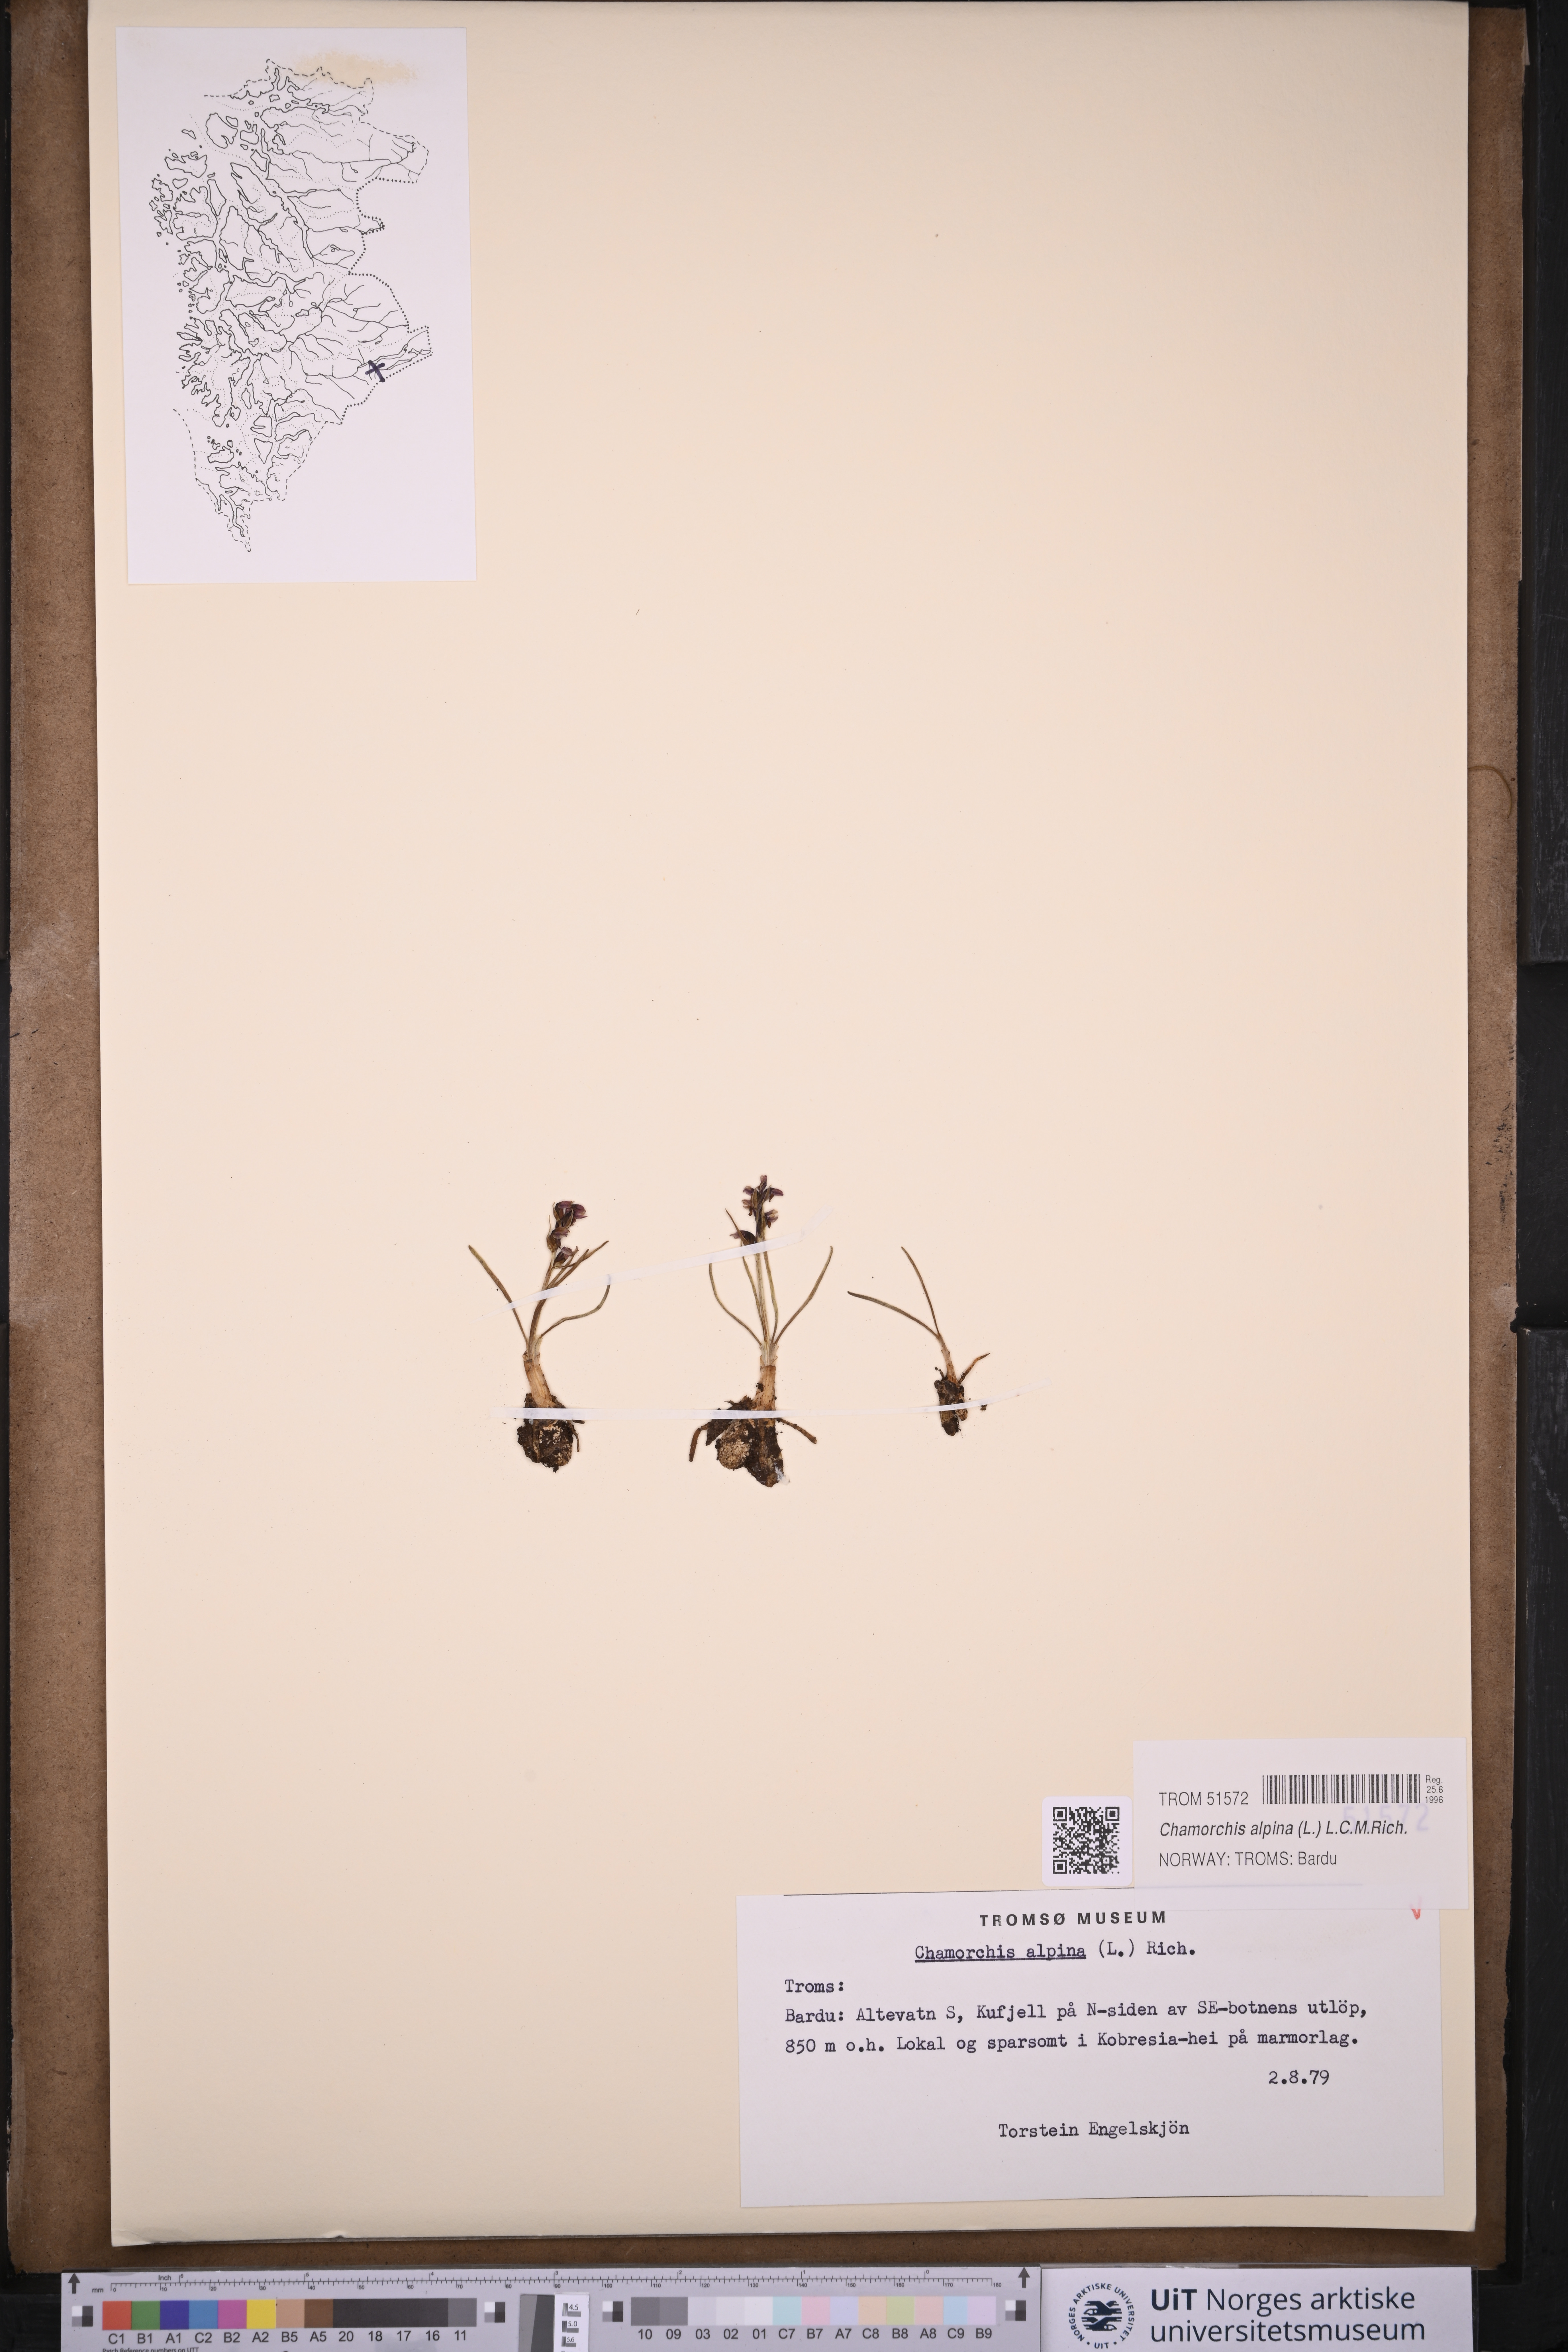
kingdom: Plantae
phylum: Tracheophyta
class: Liliopsida
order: Asparagales
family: Orchidaceae
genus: Chamorchis
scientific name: Chamorchis alpina
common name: Alpine chamorchis
